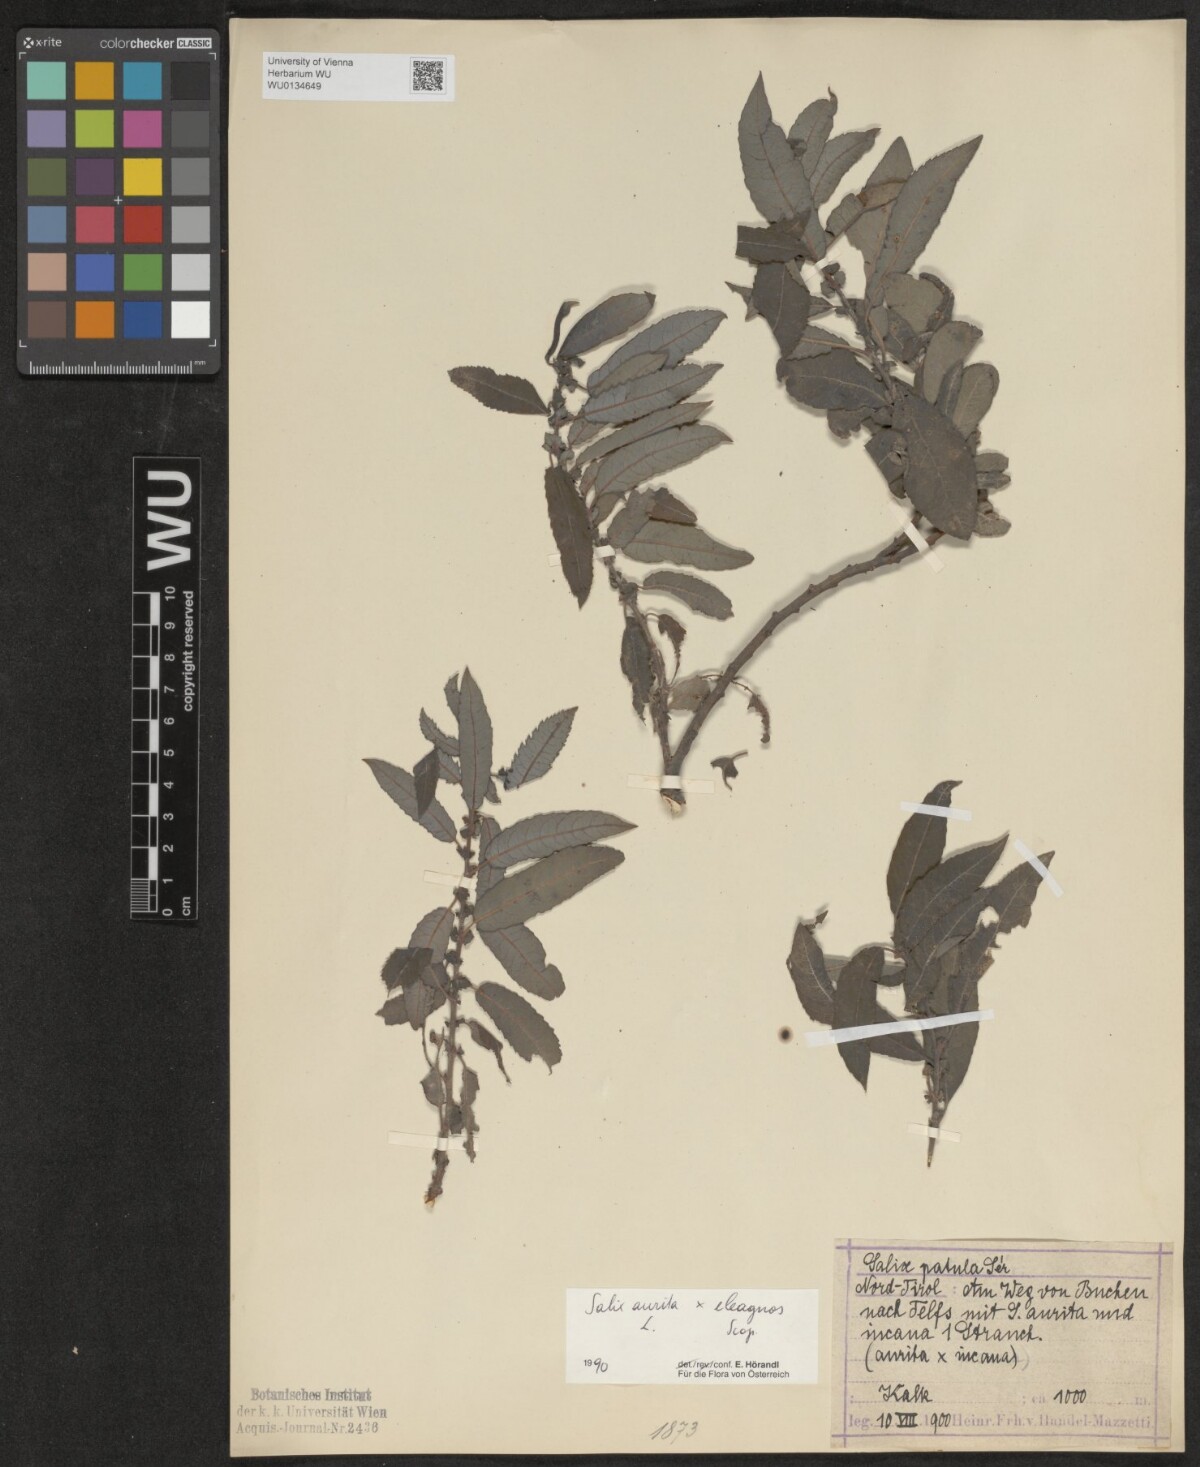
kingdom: Plantae
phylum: Tracheophyta
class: Magnoliopsida
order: Malpighiales
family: Salicaceae
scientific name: Salicaceae
